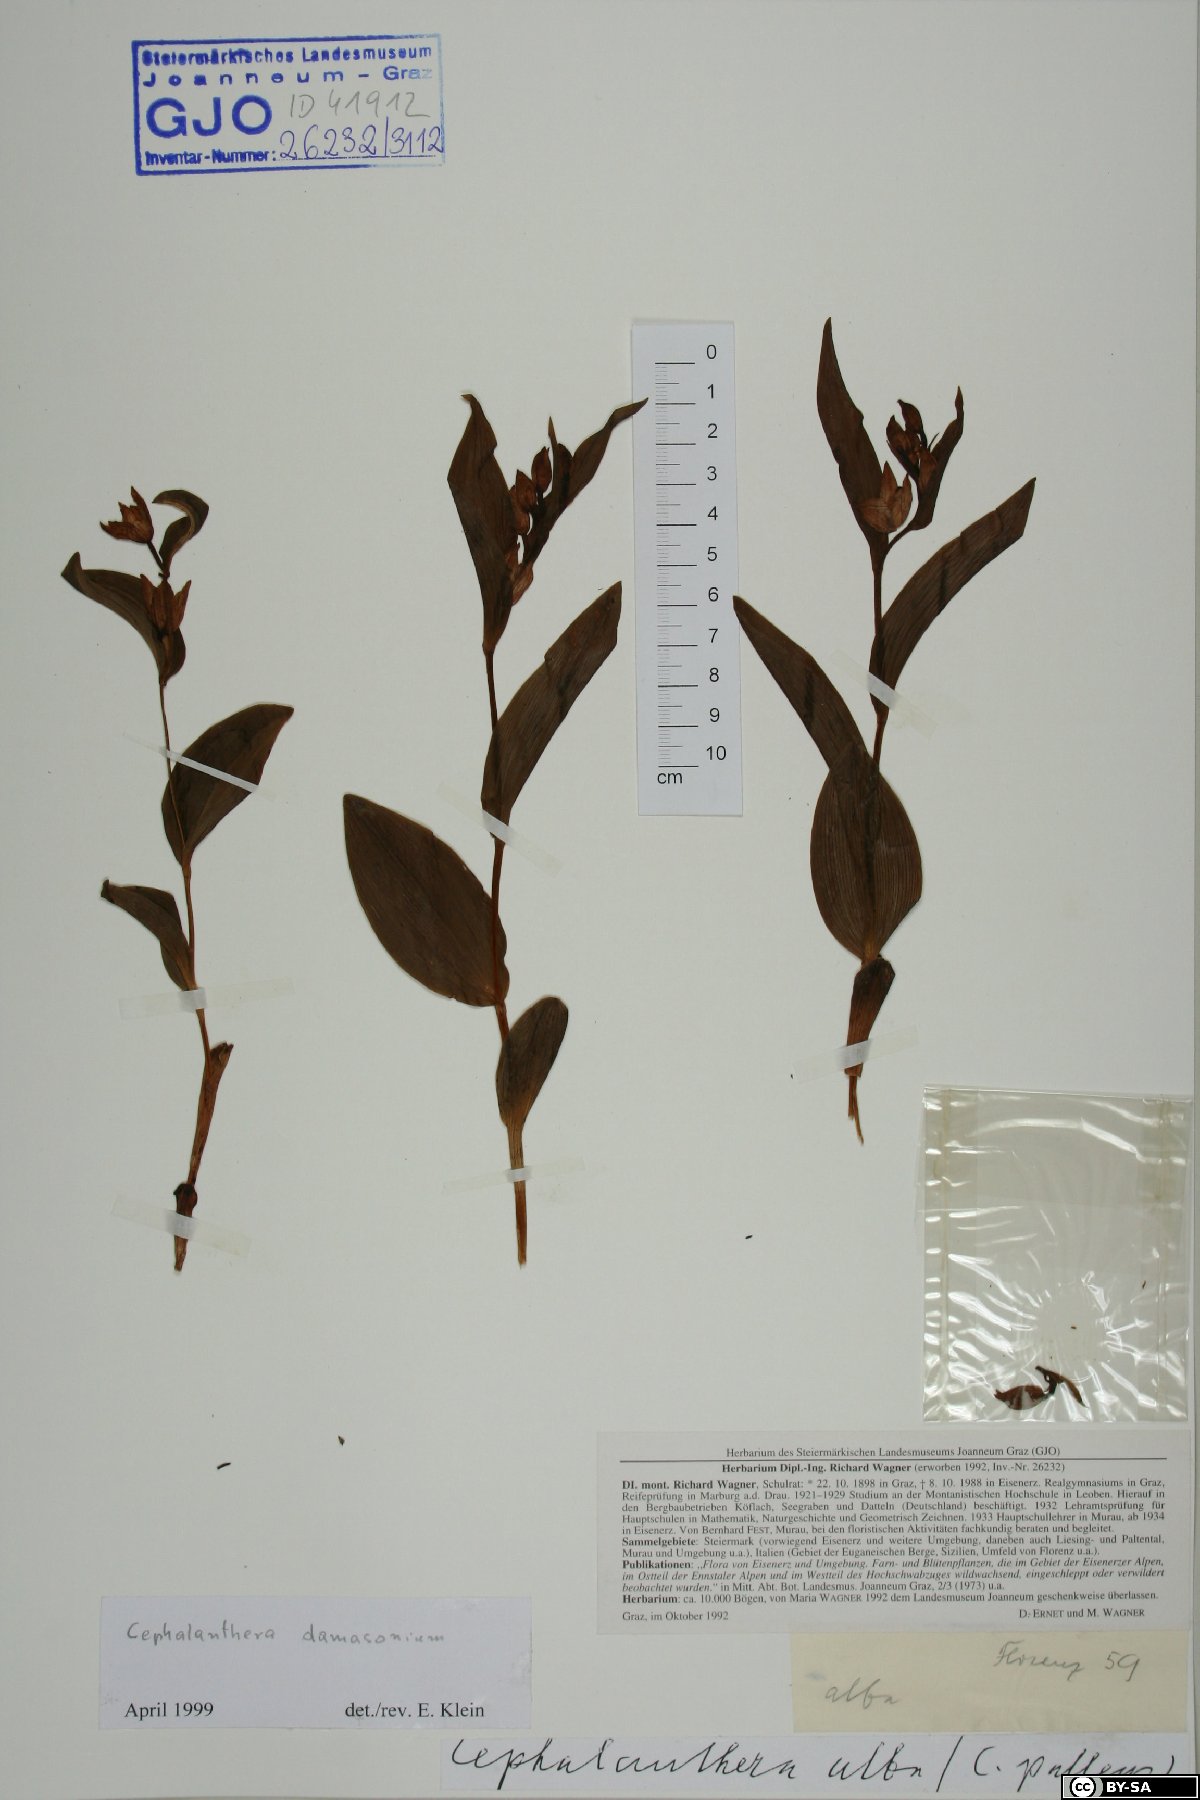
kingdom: Plantae
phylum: Tracheophyta
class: Liliopsida
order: Asparagales
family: Orchidaceae
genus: Cephalanthera
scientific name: Cephalanthera damasonium
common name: White helleborine
